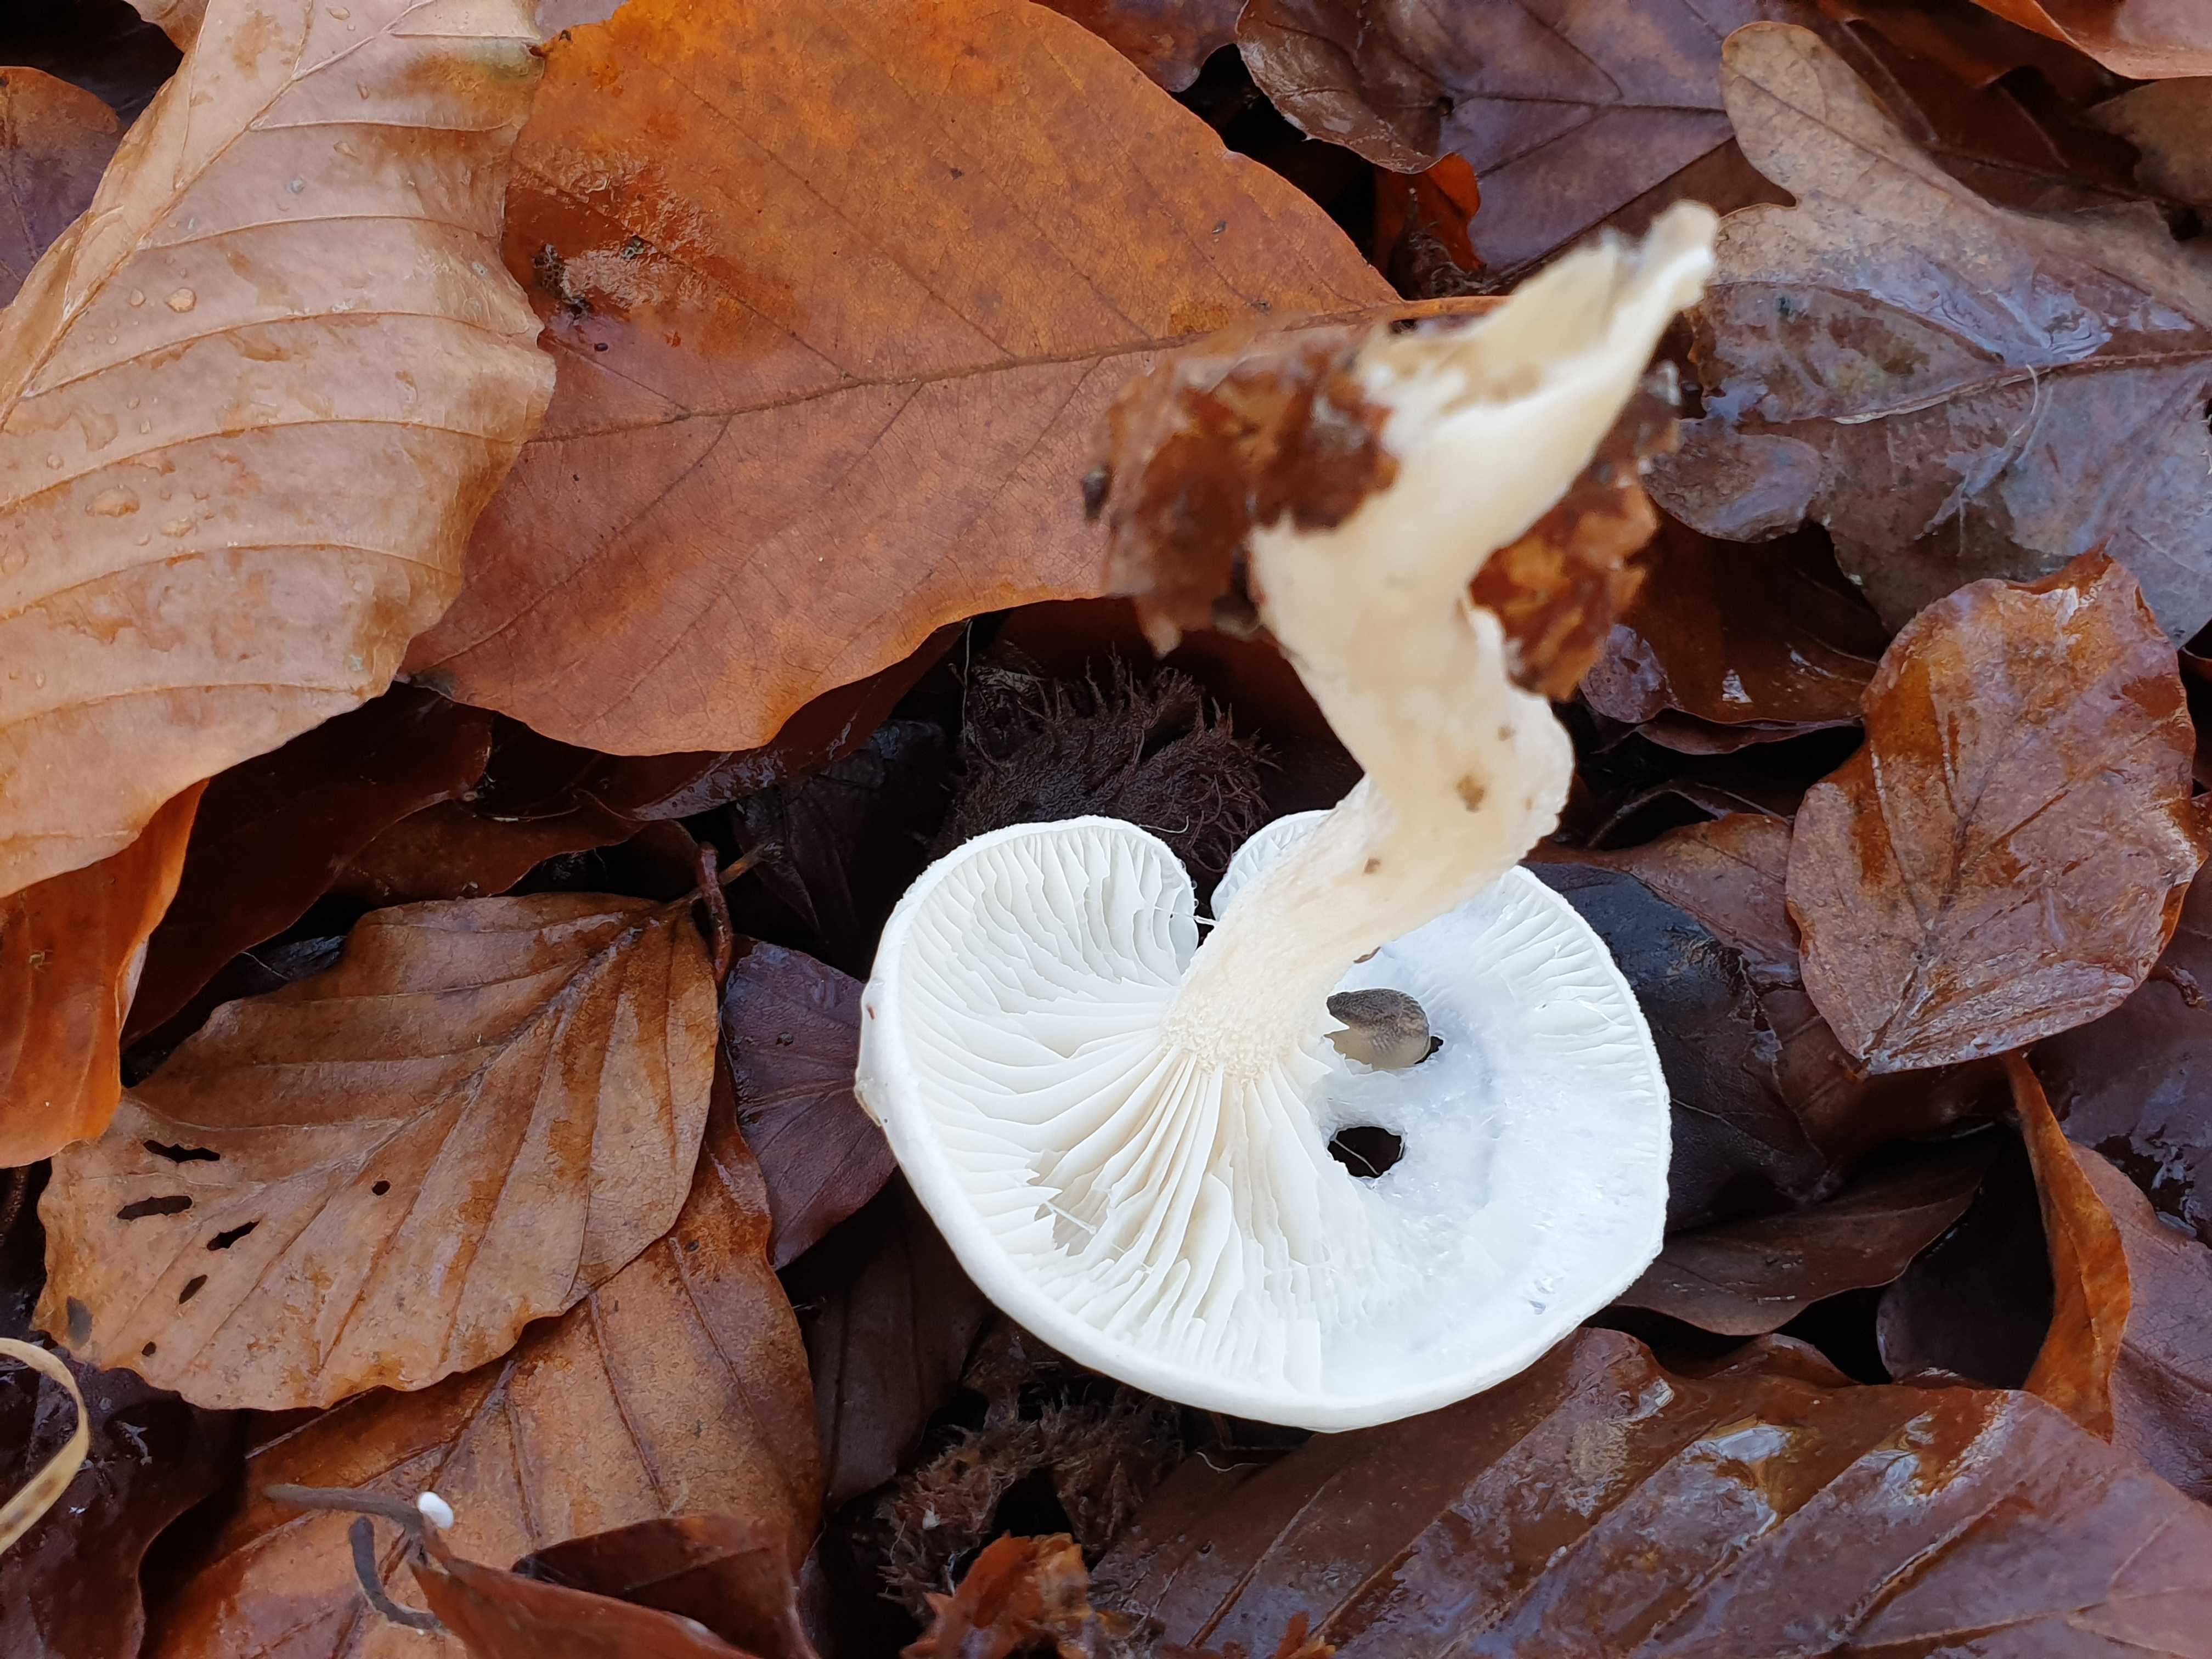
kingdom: Fungi
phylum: Basidiomycota
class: Agaricomycetes
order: Agaricales
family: Hygrophoraceae
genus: Hygrophorus
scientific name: Hygrophorus
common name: sneglehat
